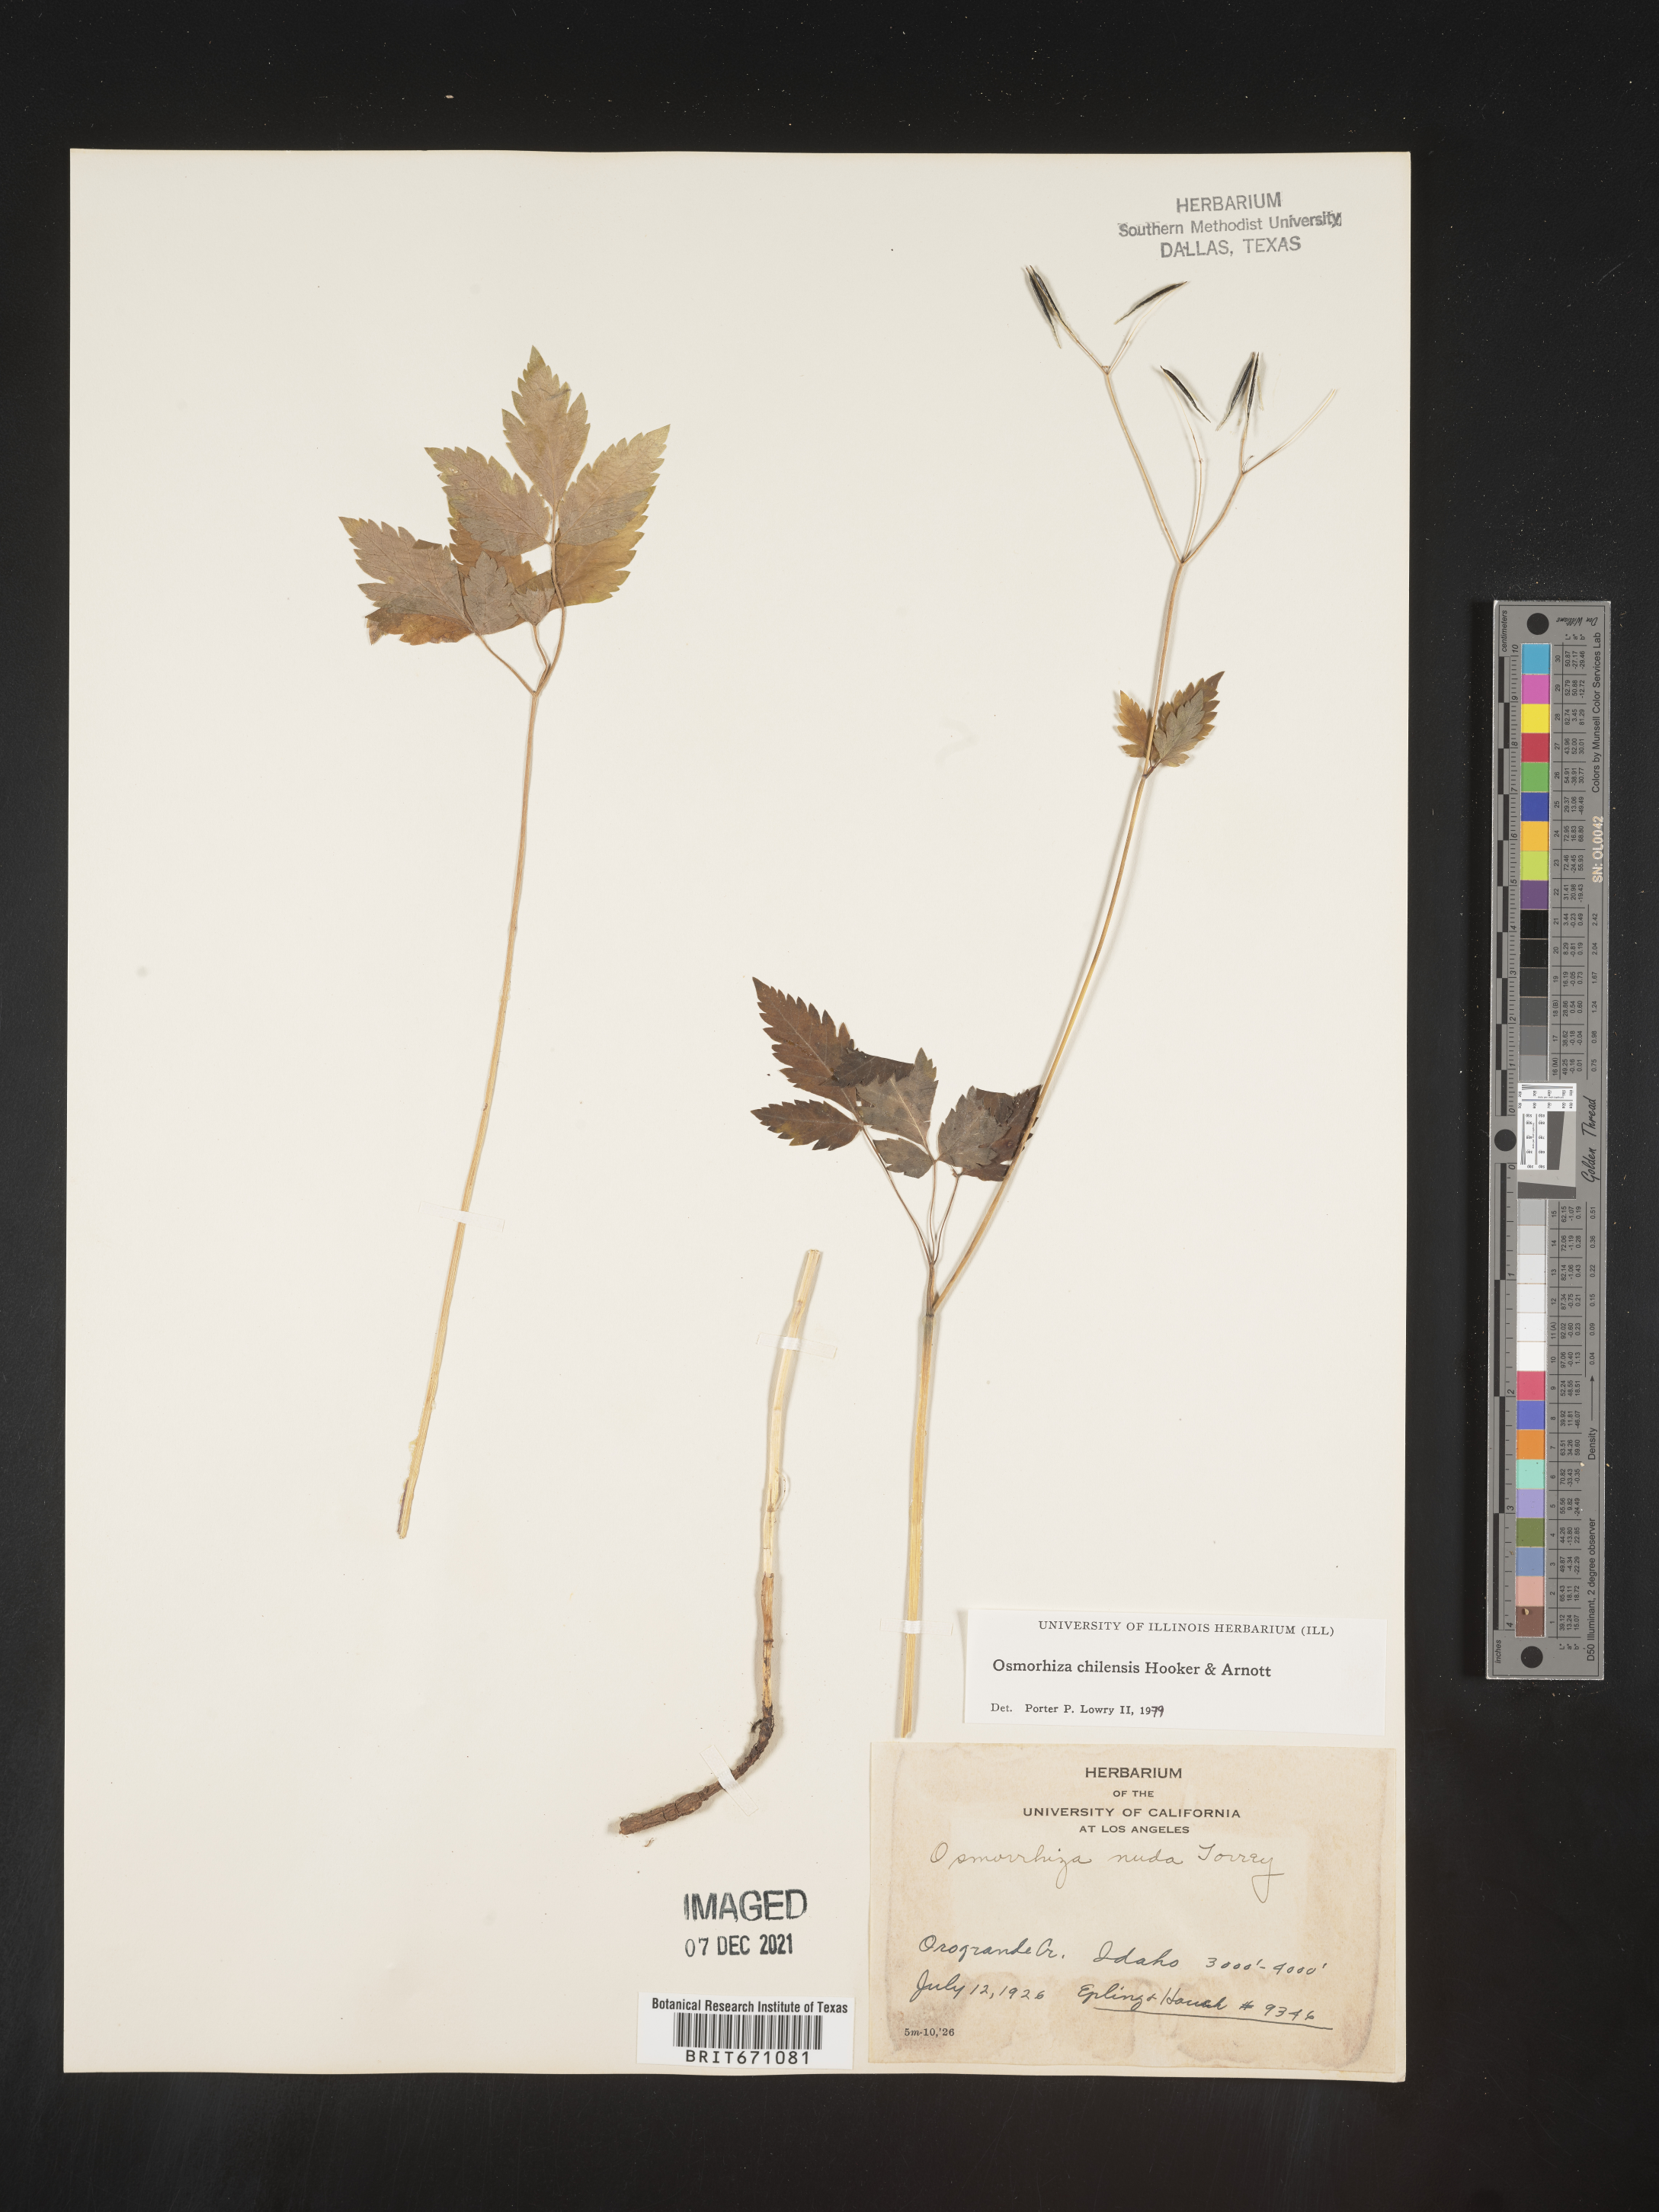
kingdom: Plantae
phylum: Tracheophyta
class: Magnoliopsida
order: Apiales
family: Apiaceae
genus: Osmorhiza
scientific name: Osmorhiza berteroi
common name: Mountain sweet cicely
